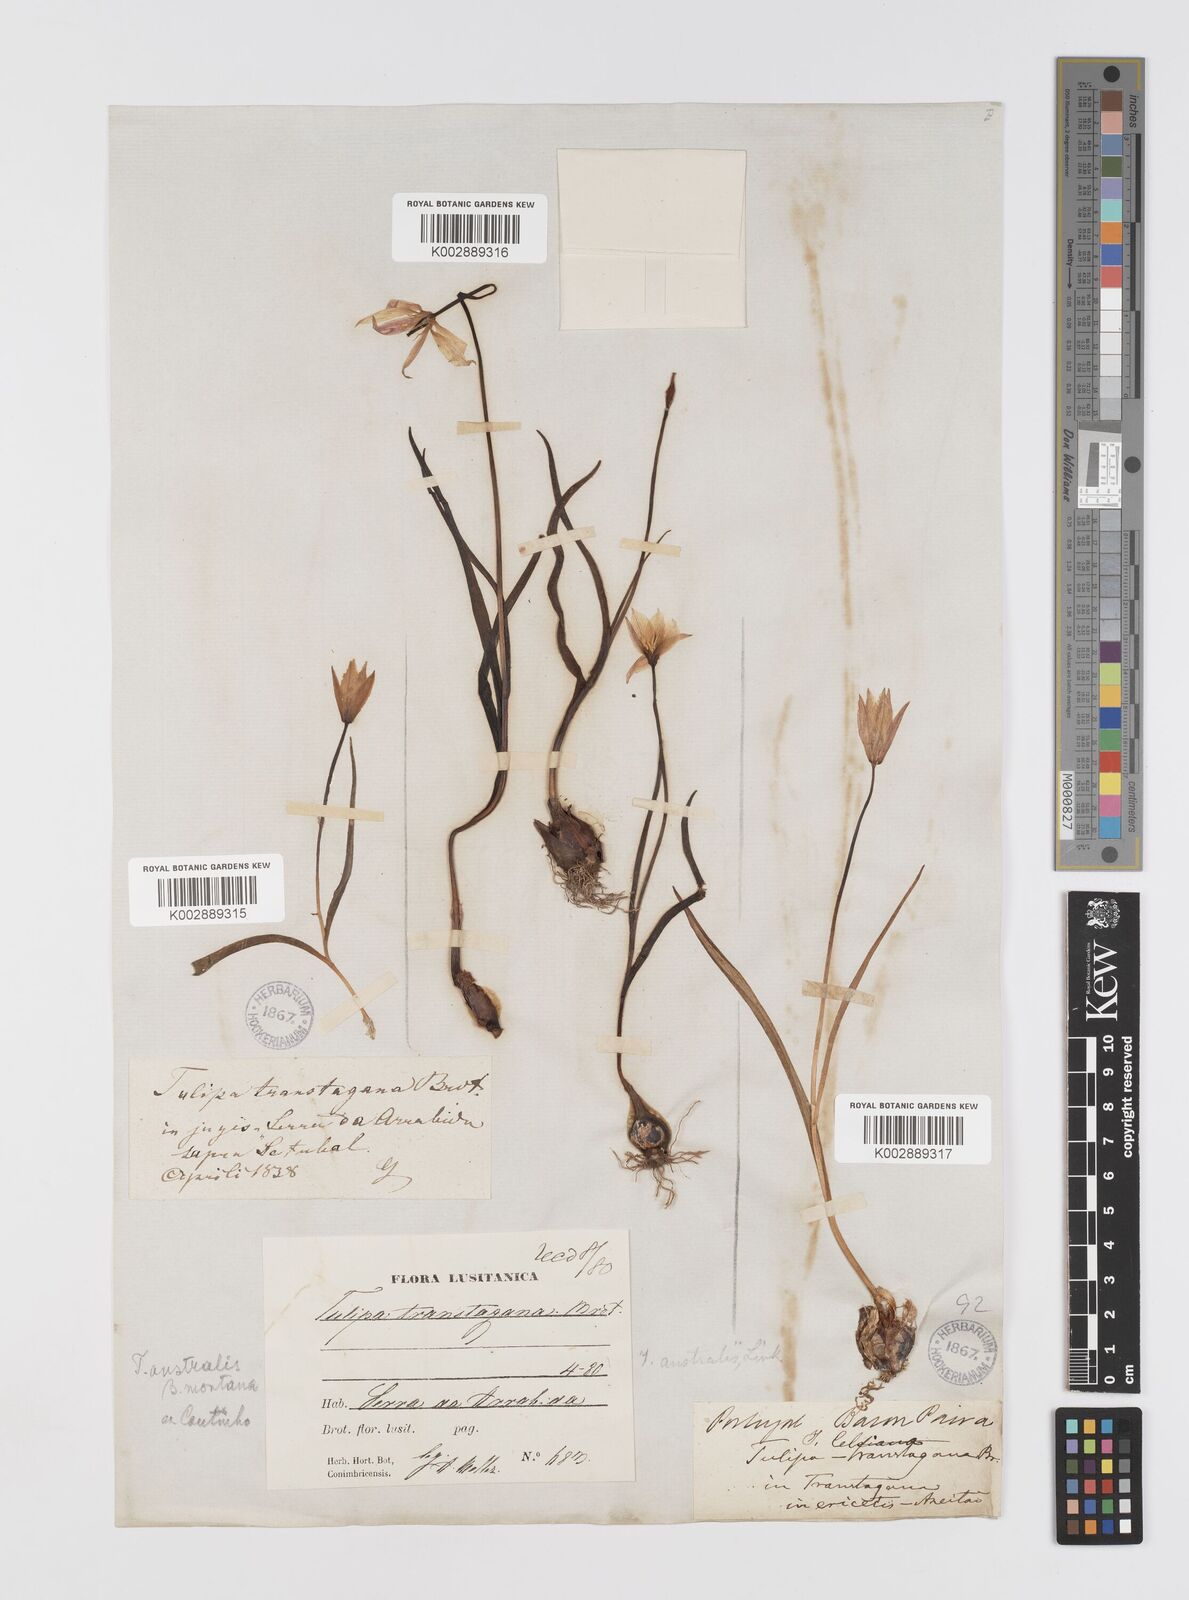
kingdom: Plantae
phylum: Tracheophyta
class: Liliopsida
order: Liliales
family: Liliaceae
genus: Tulipa
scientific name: Tulipa sylvestris
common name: Wild tulip
